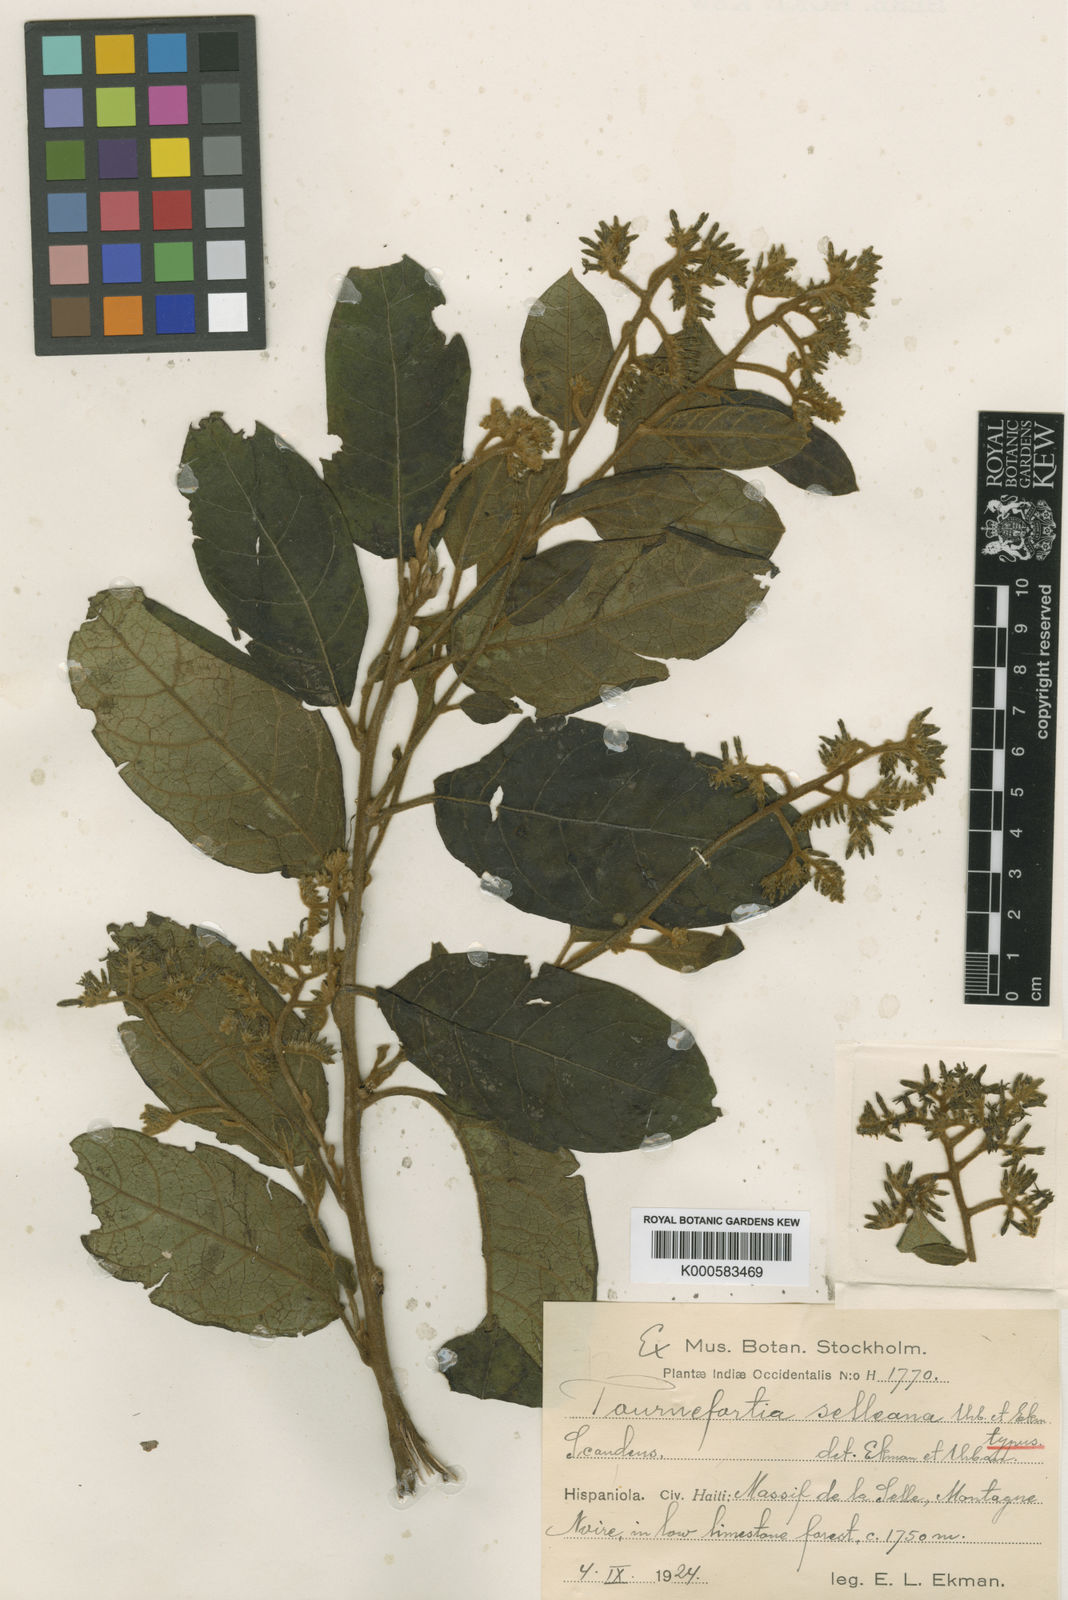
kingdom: Plantae
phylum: Tracheophyta
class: Magnoliopsida
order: Boraginales
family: Heliotropiaceae
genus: Myriopus
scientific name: Myriopus selleanus
